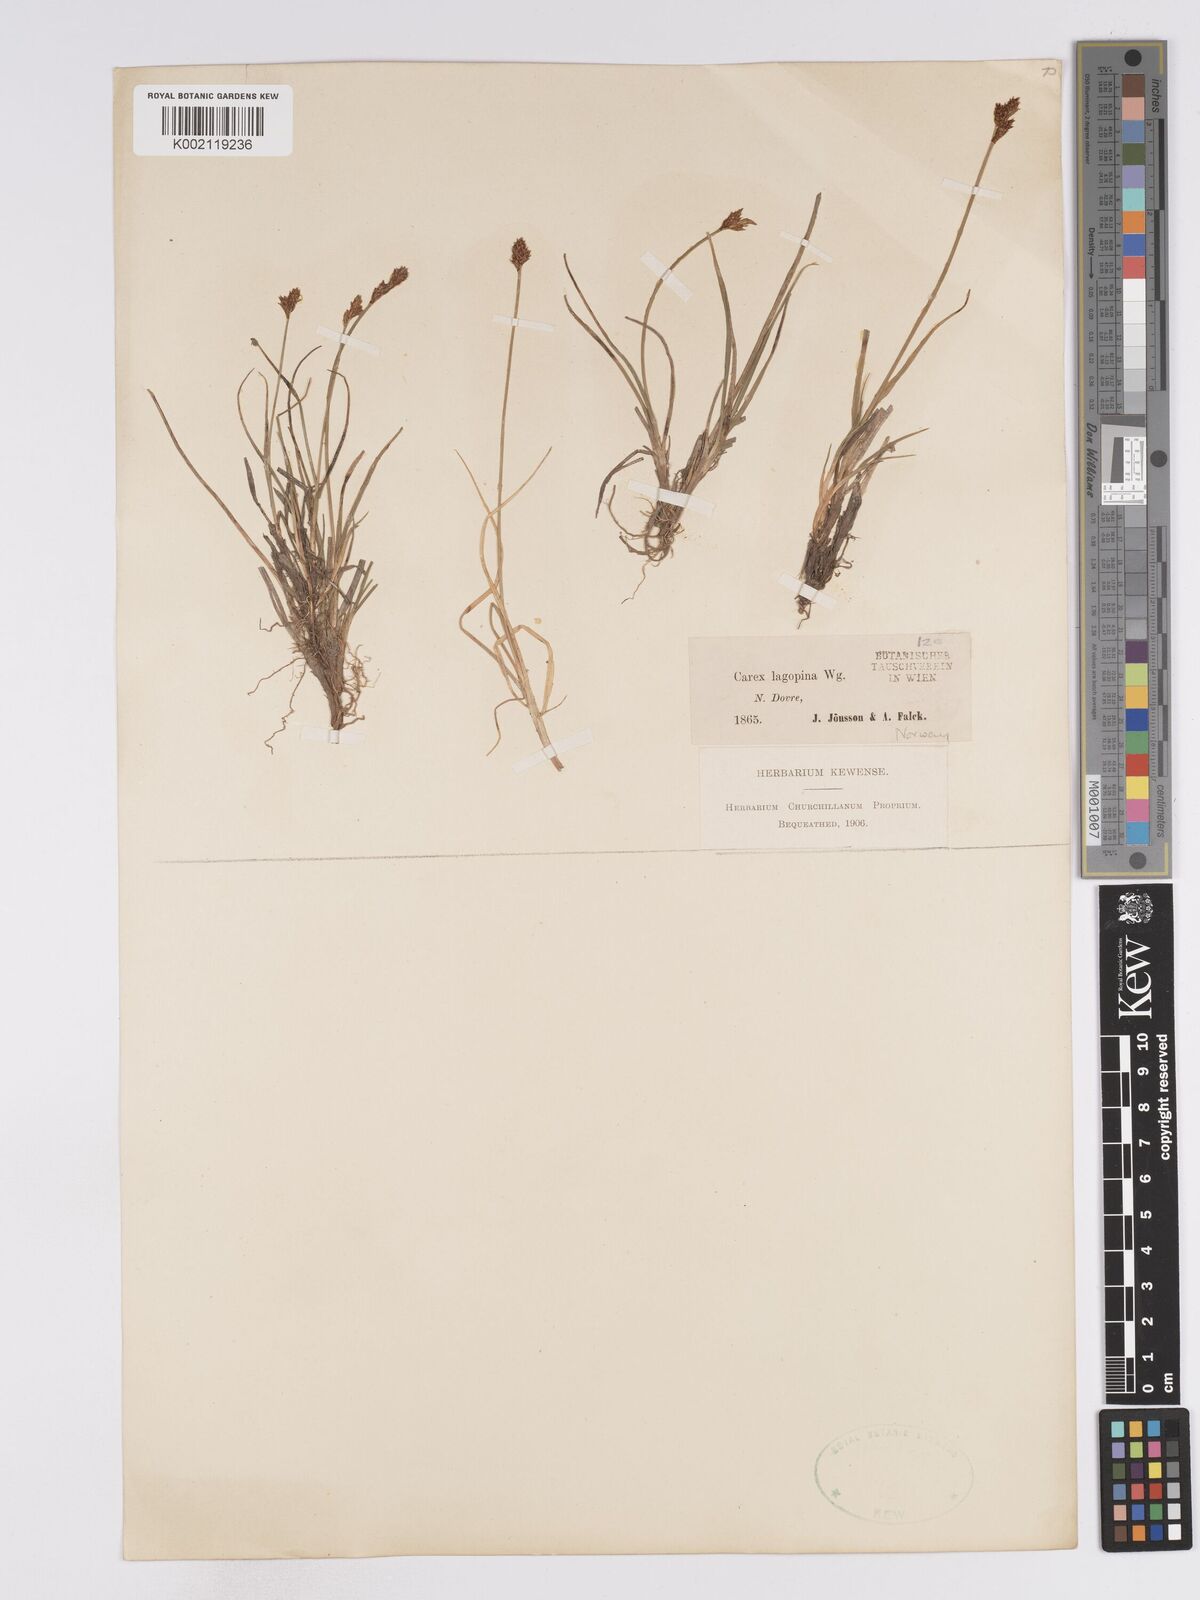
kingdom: Plantae
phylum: Tracheophyta
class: Liliopsida
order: Poales
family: Cyperaceae
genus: Carex
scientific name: Carex lachenalii
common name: Hare's-foot sedge
